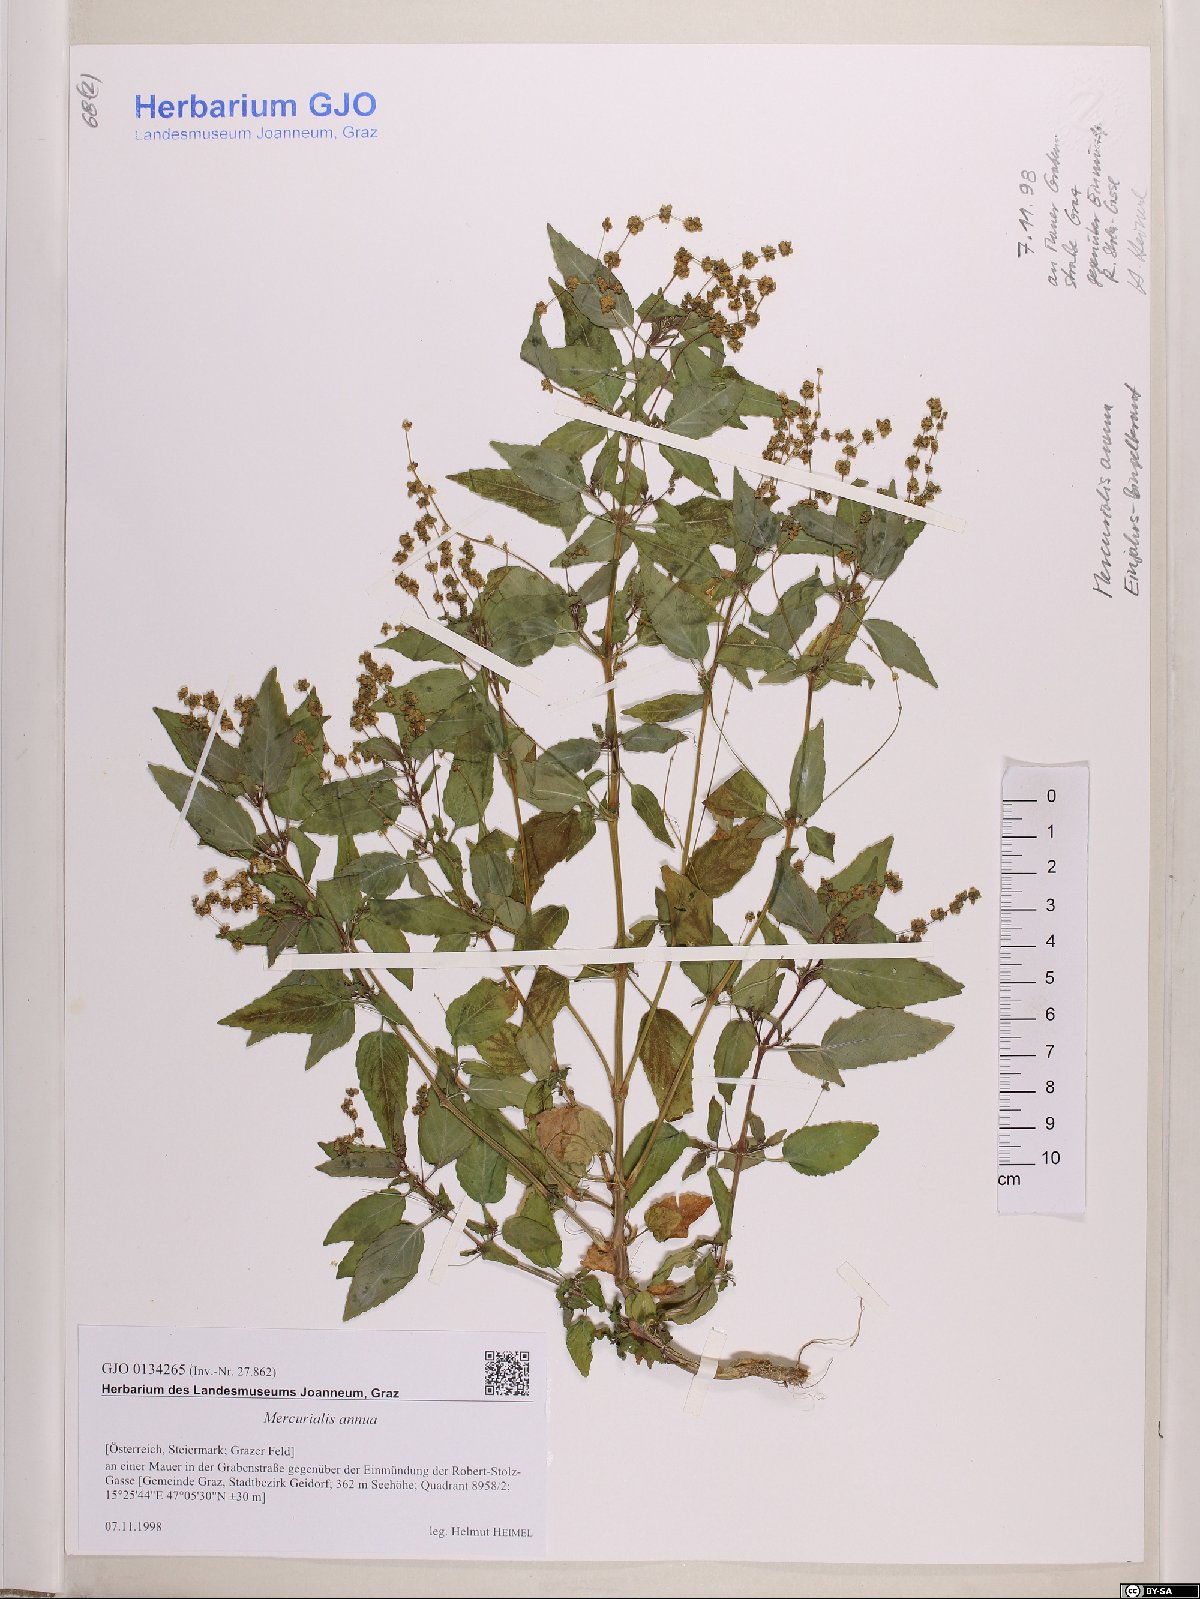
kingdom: Plantae
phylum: Tracheophyta
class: Magnoliopsida
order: Malpighiales
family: Euphorbiaceae
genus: Mercurialis
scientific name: Mercurialis annua
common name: Annual mercury
